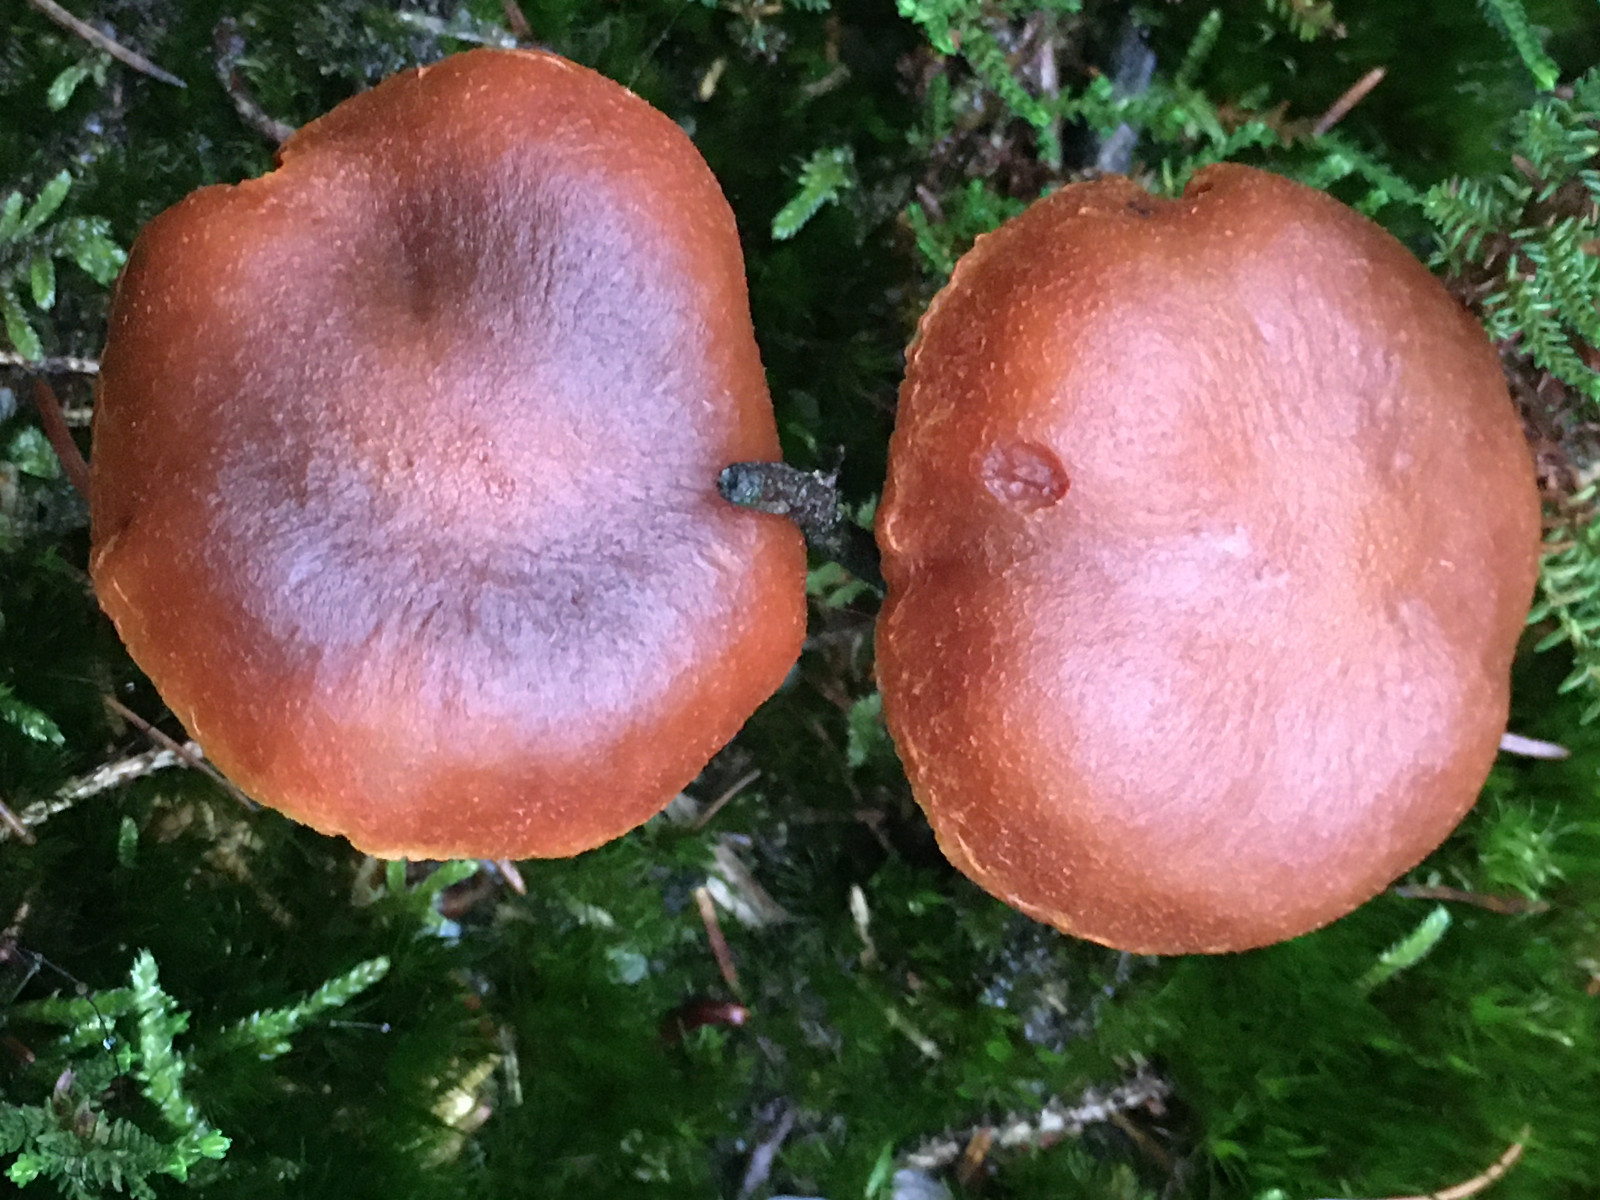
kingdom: Fungi
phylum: Basidiomycota
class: Agaricomycetes
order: Agaricales
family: Cortinariaceae
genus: Aureonarius
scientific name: Aureonarius limonius
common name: orangegul slørhat
